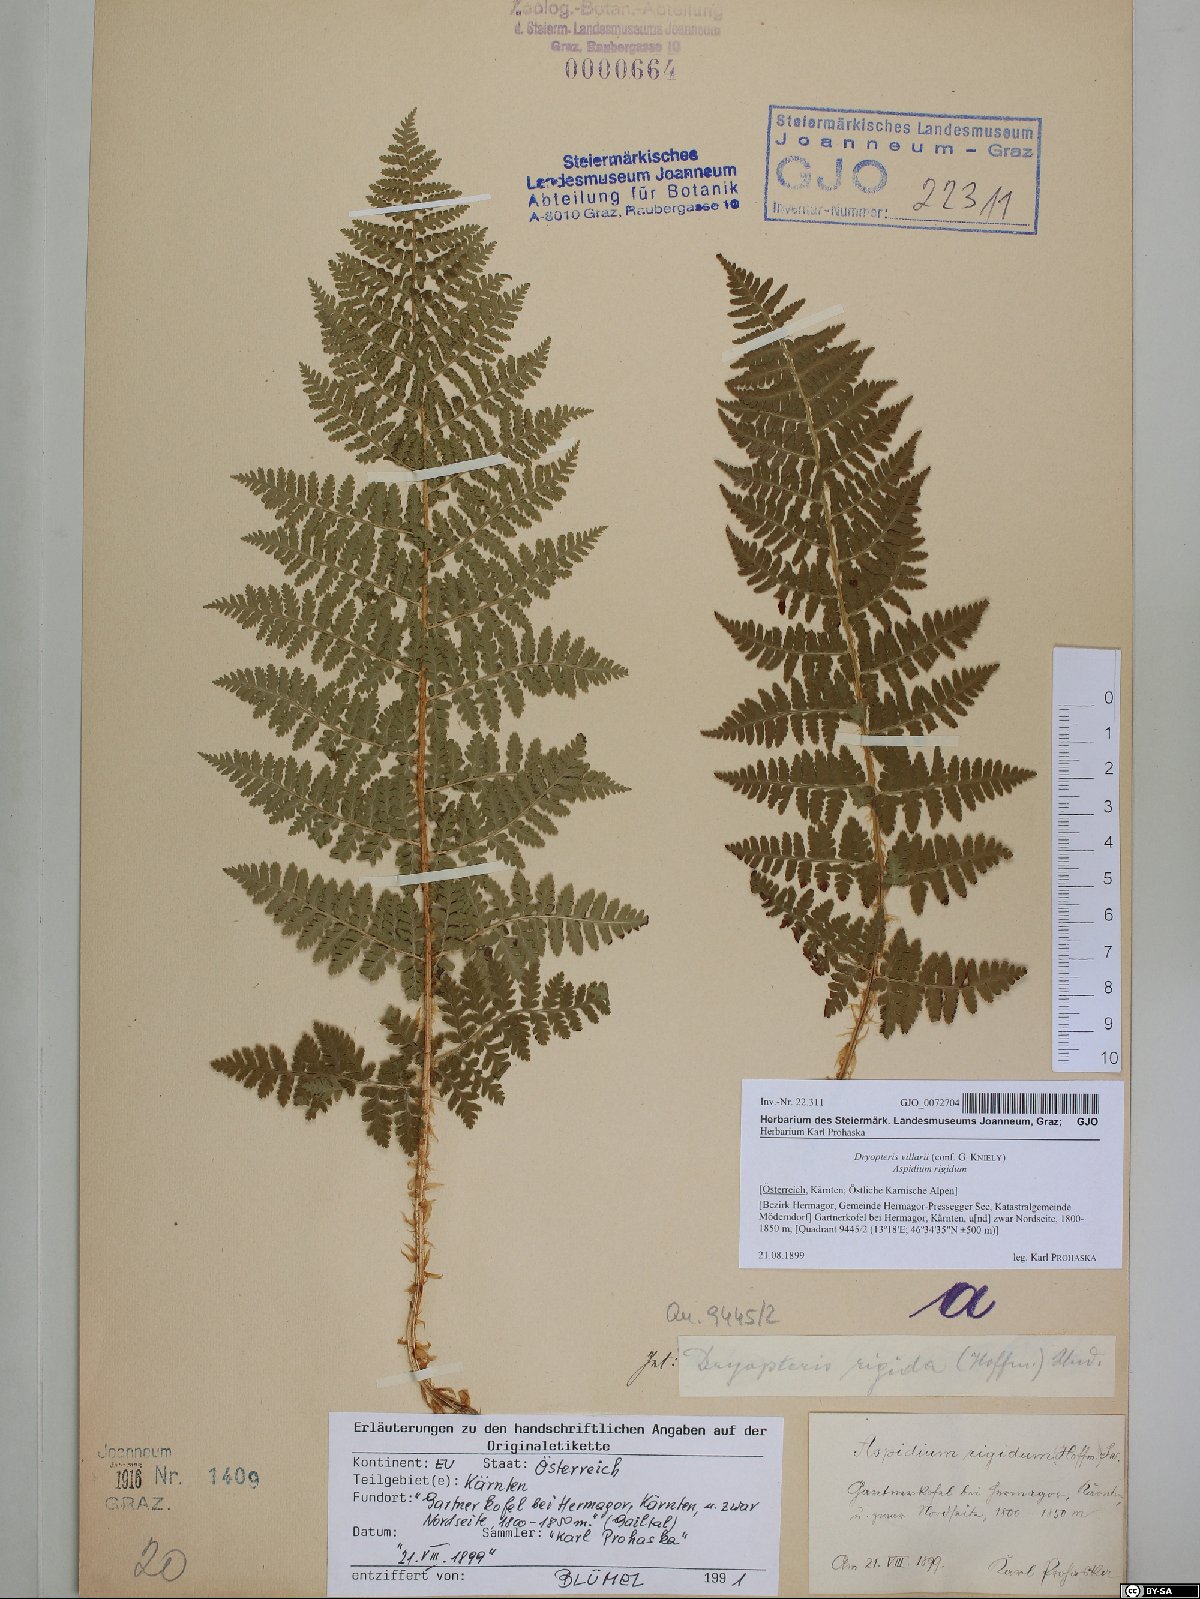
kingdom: Plantae
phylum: Tracheophyta
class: Polypodiopsida
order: Polypodiales
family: Dryopteridaceae
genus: Dryopteris
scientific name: Dryopteris villarii
